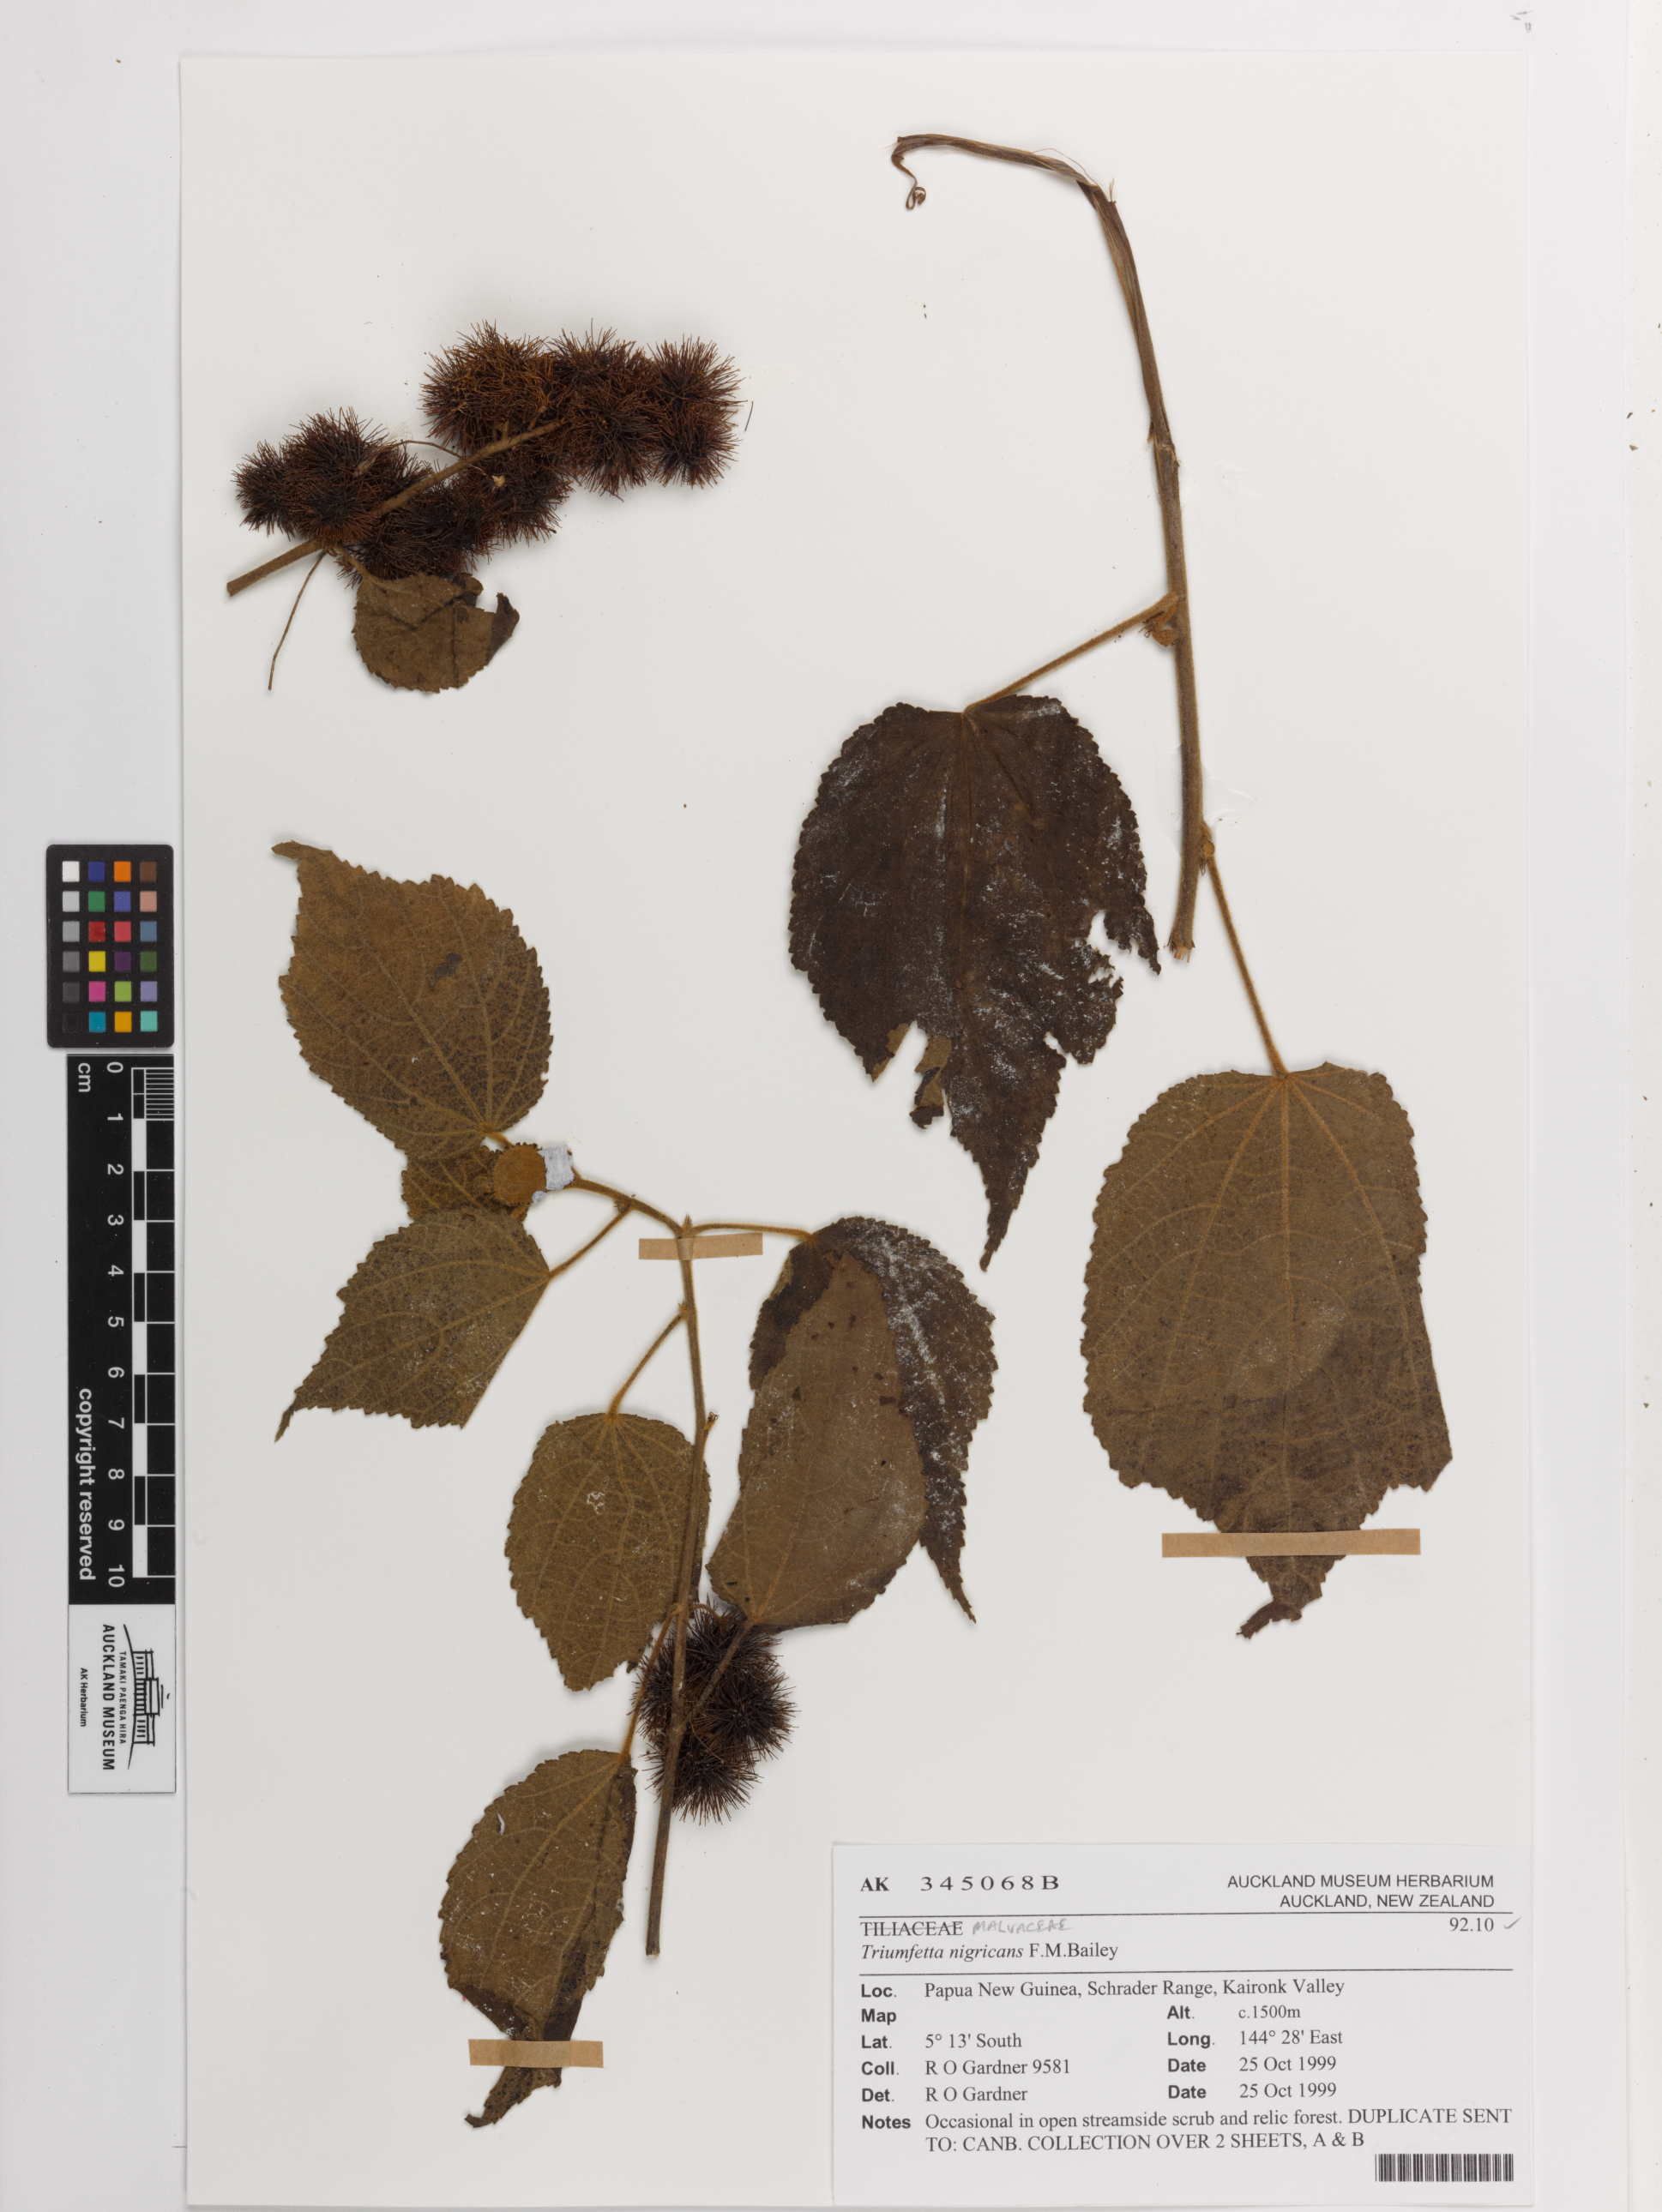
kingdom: Plantae
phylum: Tracheophyta
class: Magnoliopsida
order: Malvales
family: Malvaceae
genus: Triumfetta
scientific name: Triumfetta nigricans
